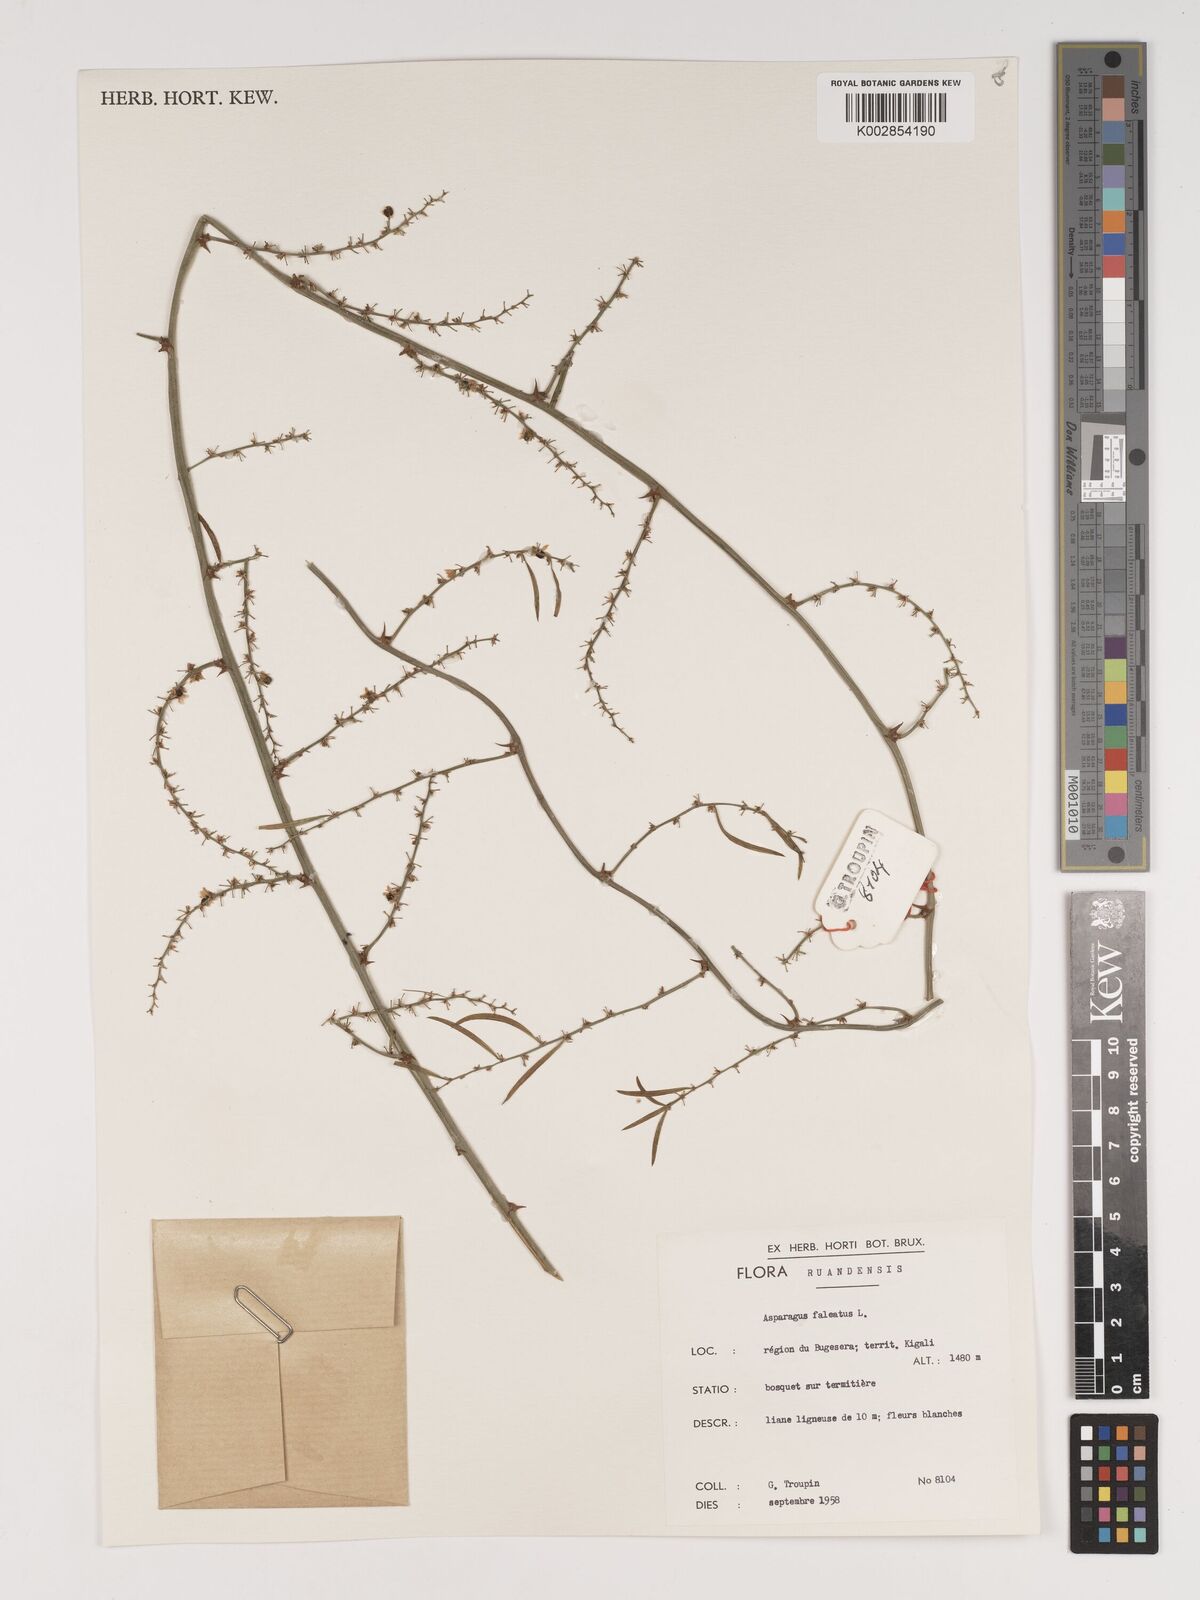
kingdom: Plantae
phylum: Tracheophyta
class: Liliopsida
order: Asparagales
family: Asparagaceae
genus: Asparagus
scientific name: Asparagus falcatus
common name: Asparagus
